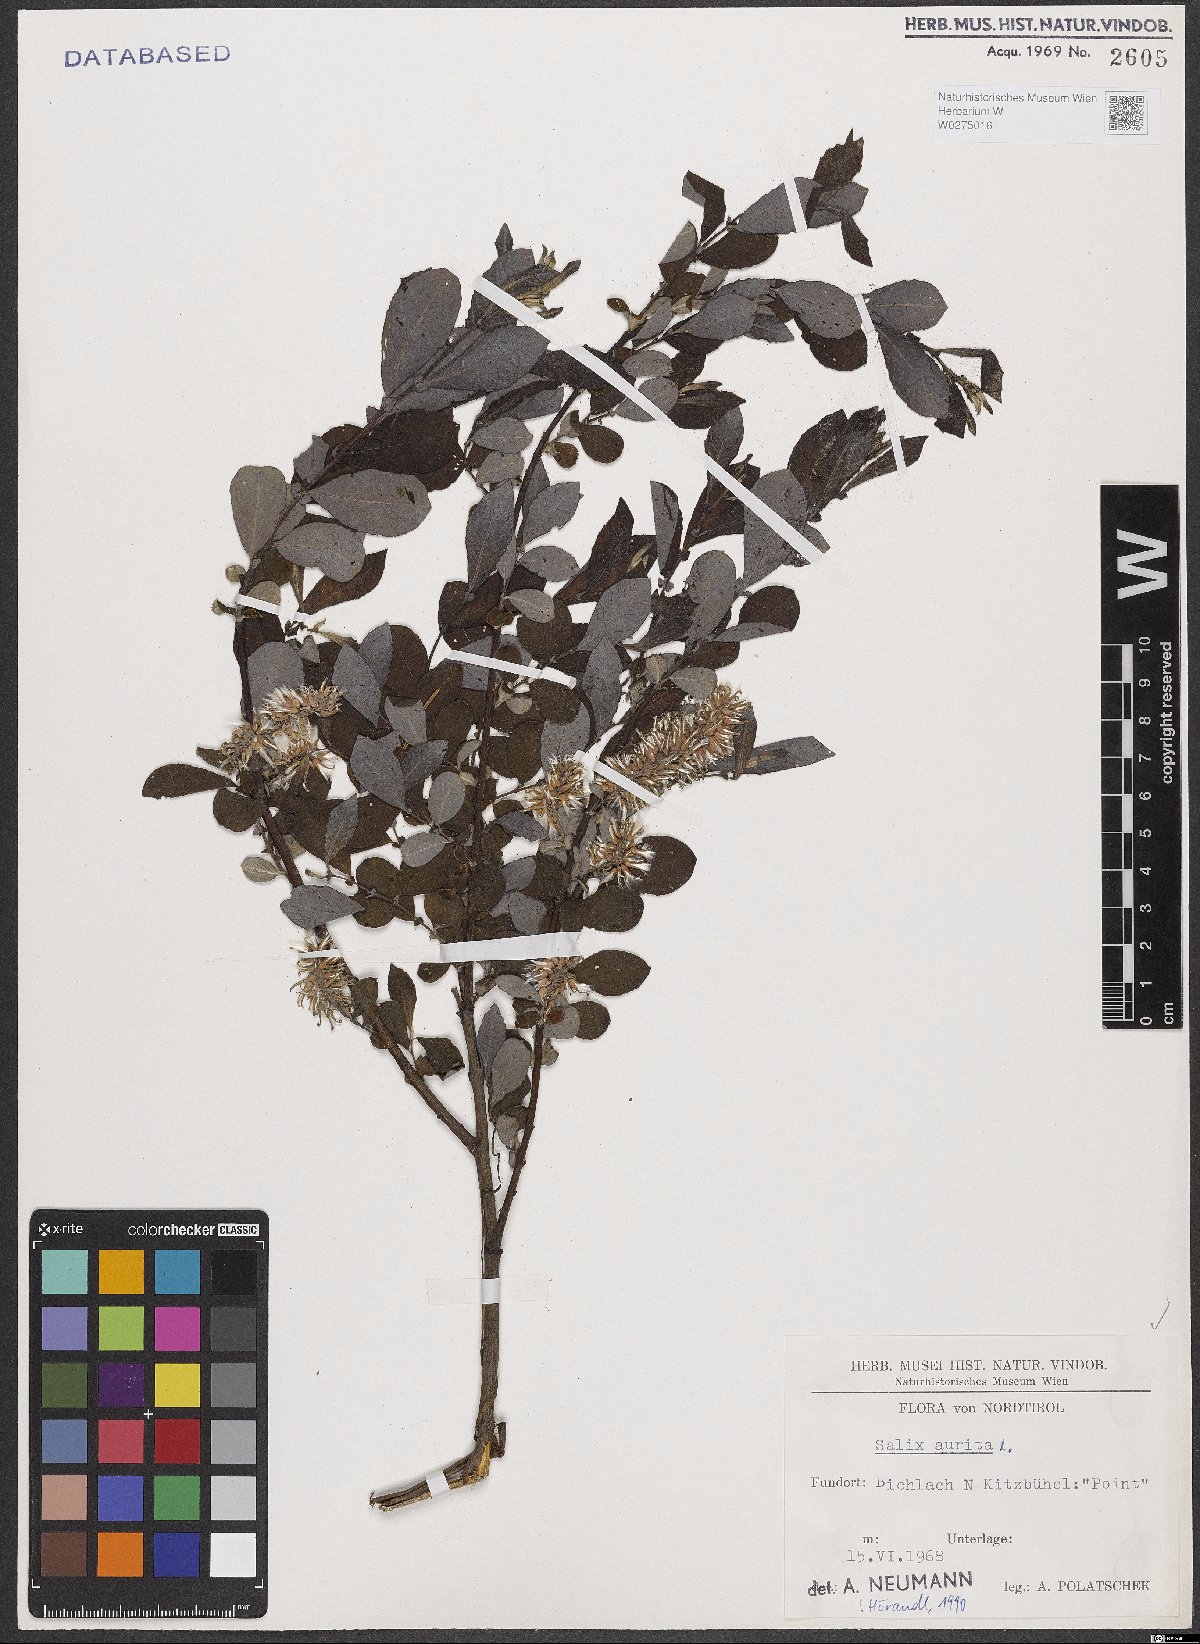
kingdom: Plantae
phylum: Tracheophyta
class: Magnoliopsida
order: Malpighiales
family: Salicaceae
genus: Salix
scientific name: Salix aurita
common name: Eared willow
